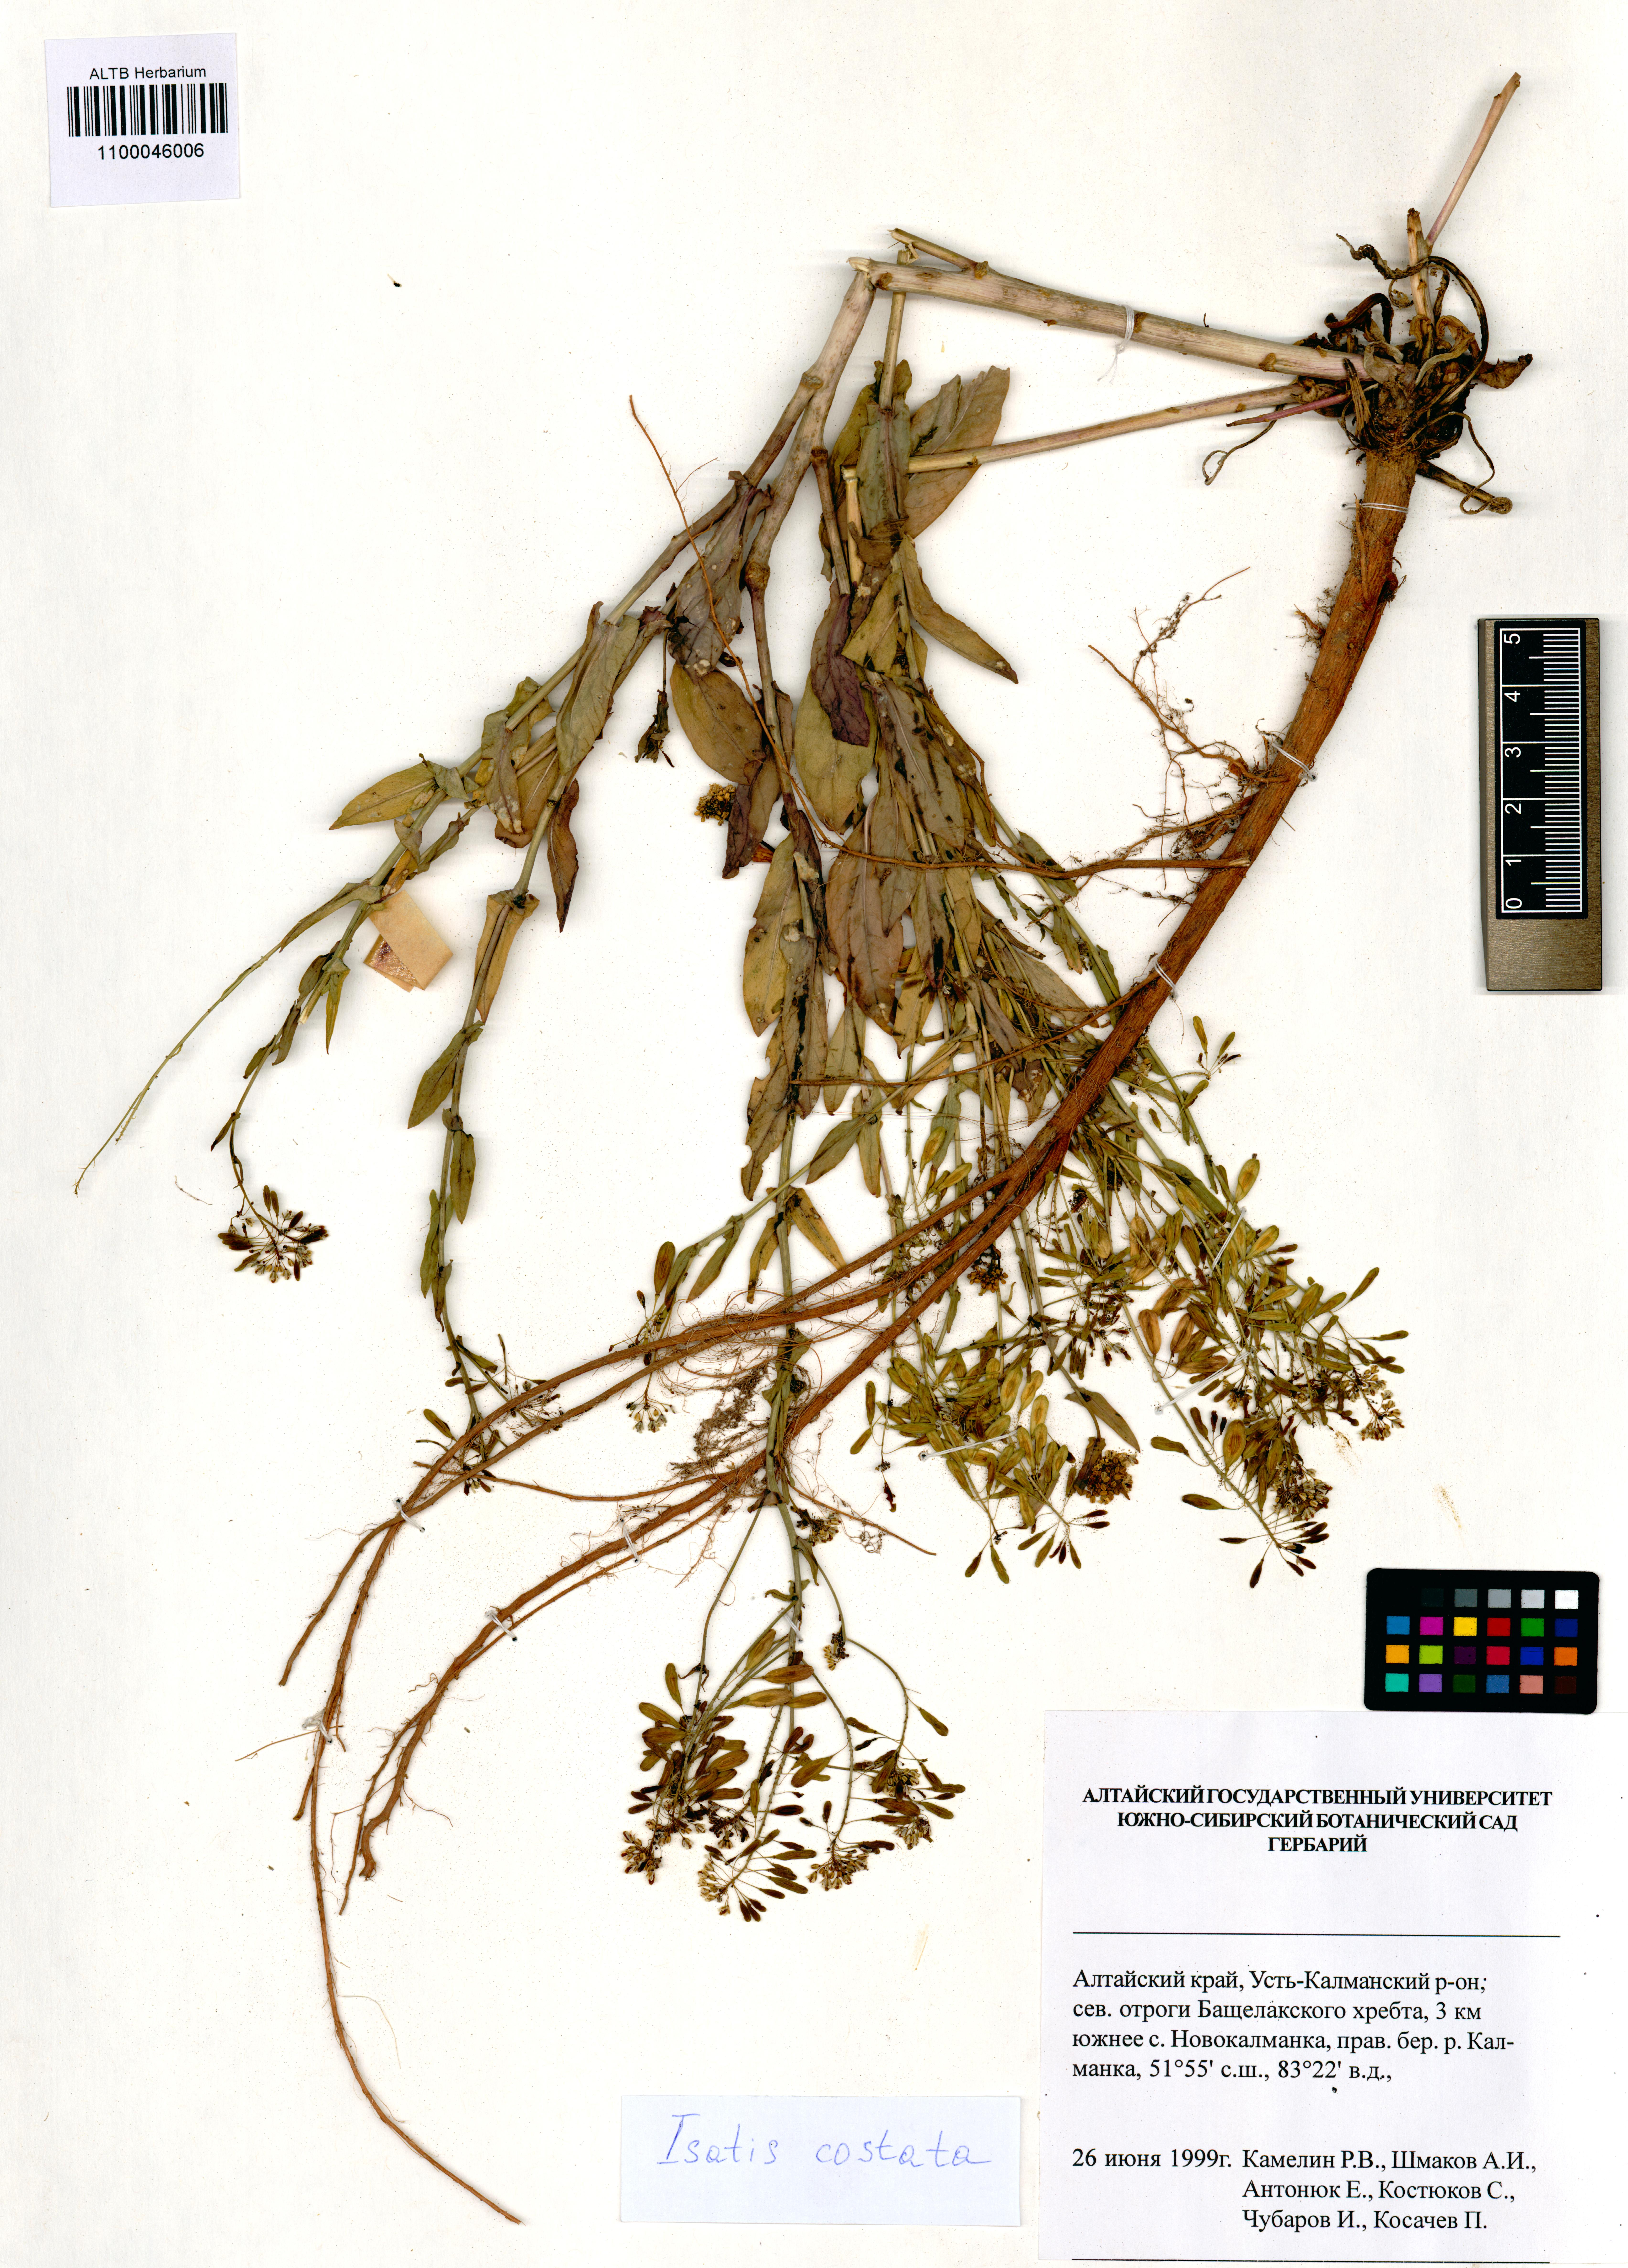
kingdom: Plantae
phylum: Tracheophyta
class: Magnoliopsida
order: Brassicales
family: Brassicaceae
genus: Isatis
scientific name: Isatis costata
